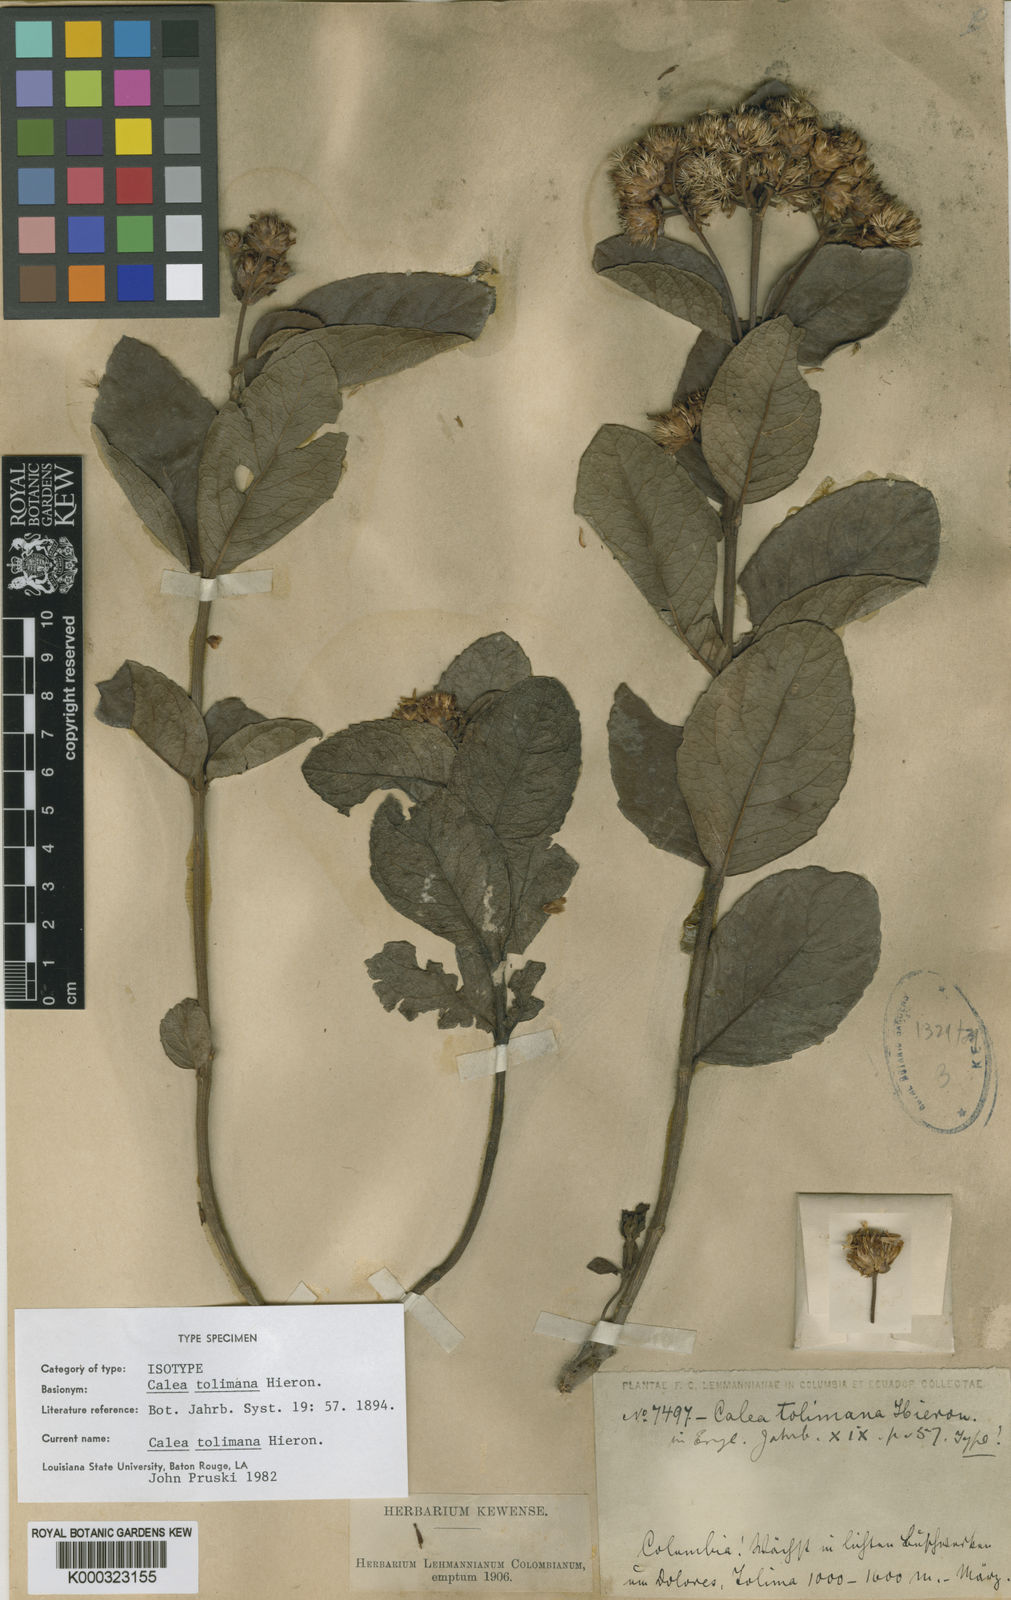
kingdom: Plantae
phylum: Tracheophyta
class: Magnoliopsida
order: Asterales
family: Asteraceae
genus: Calea
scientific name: Calea tolimana
